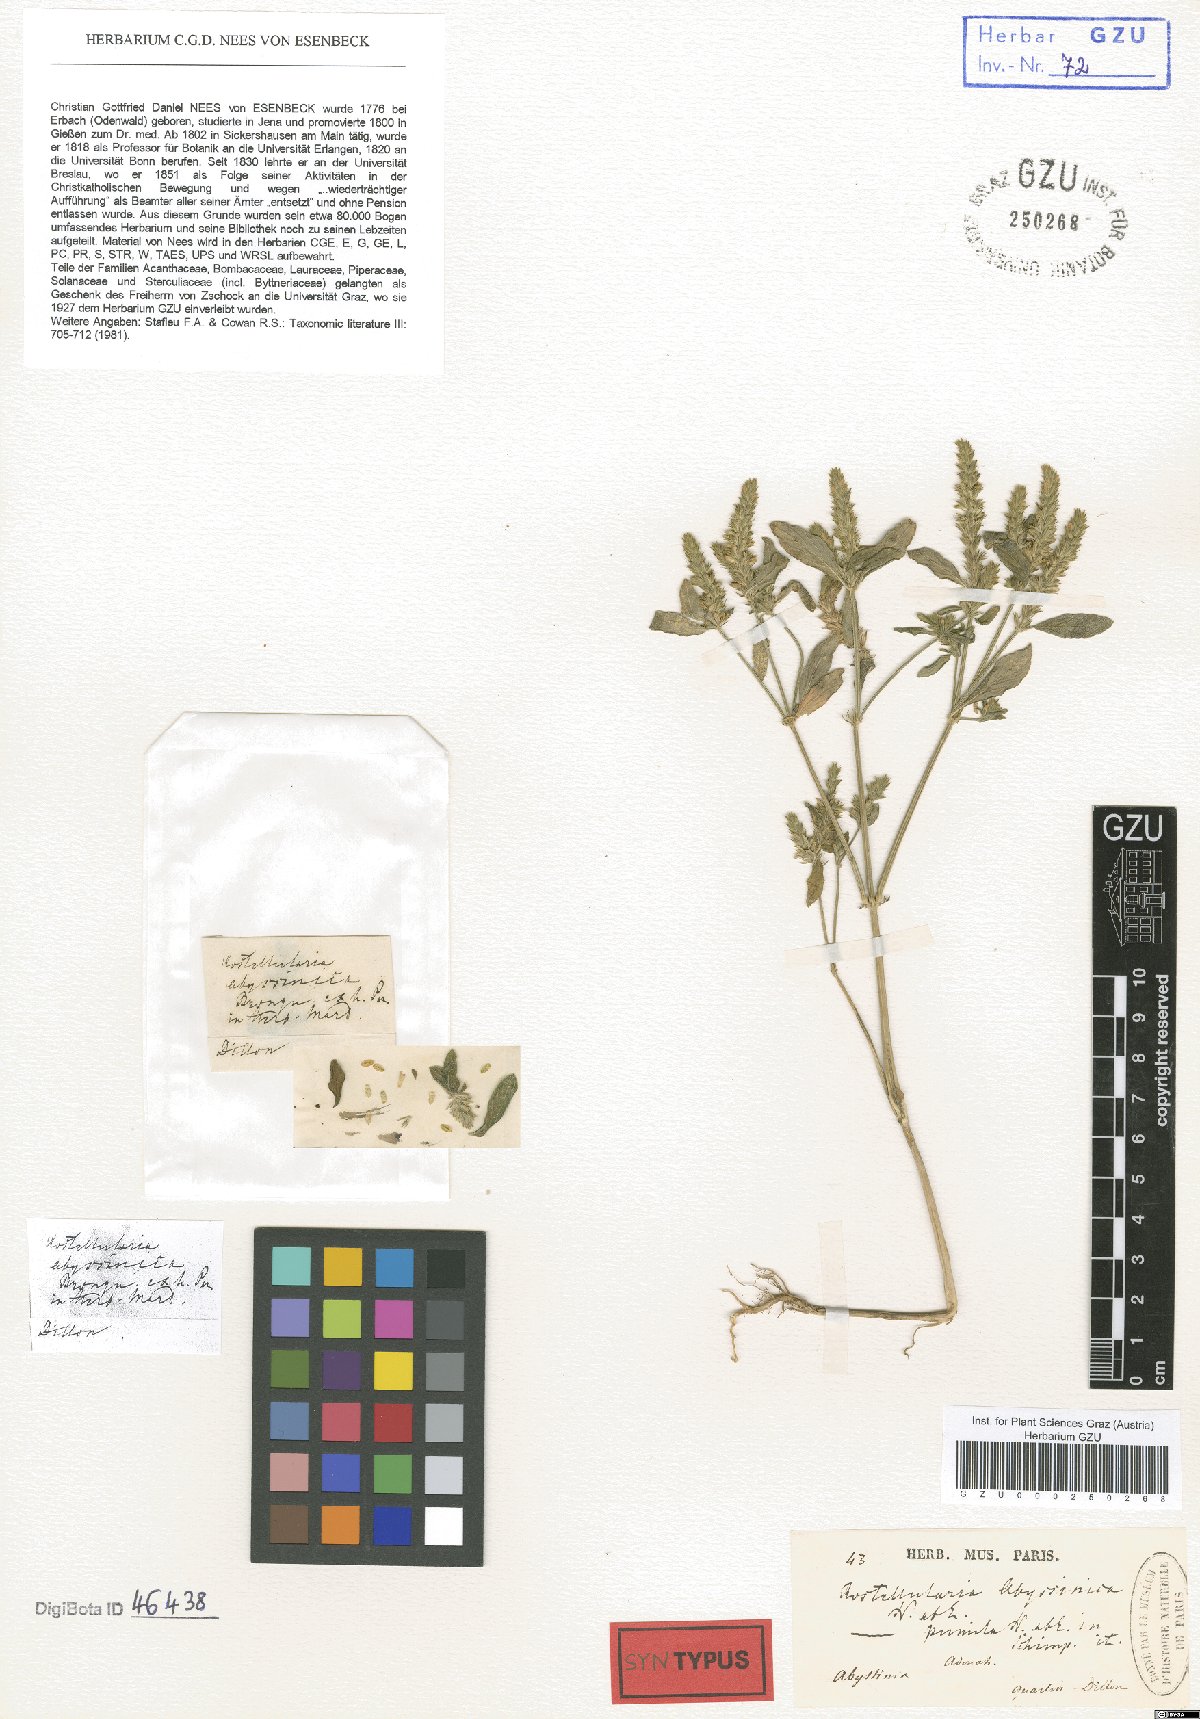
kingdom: Plantae
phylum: Tracheophyta
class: Magnoliopsida
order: Lamiales
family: Acanthaceae
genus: Rostellularia
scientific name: Rostellularia diffusa
